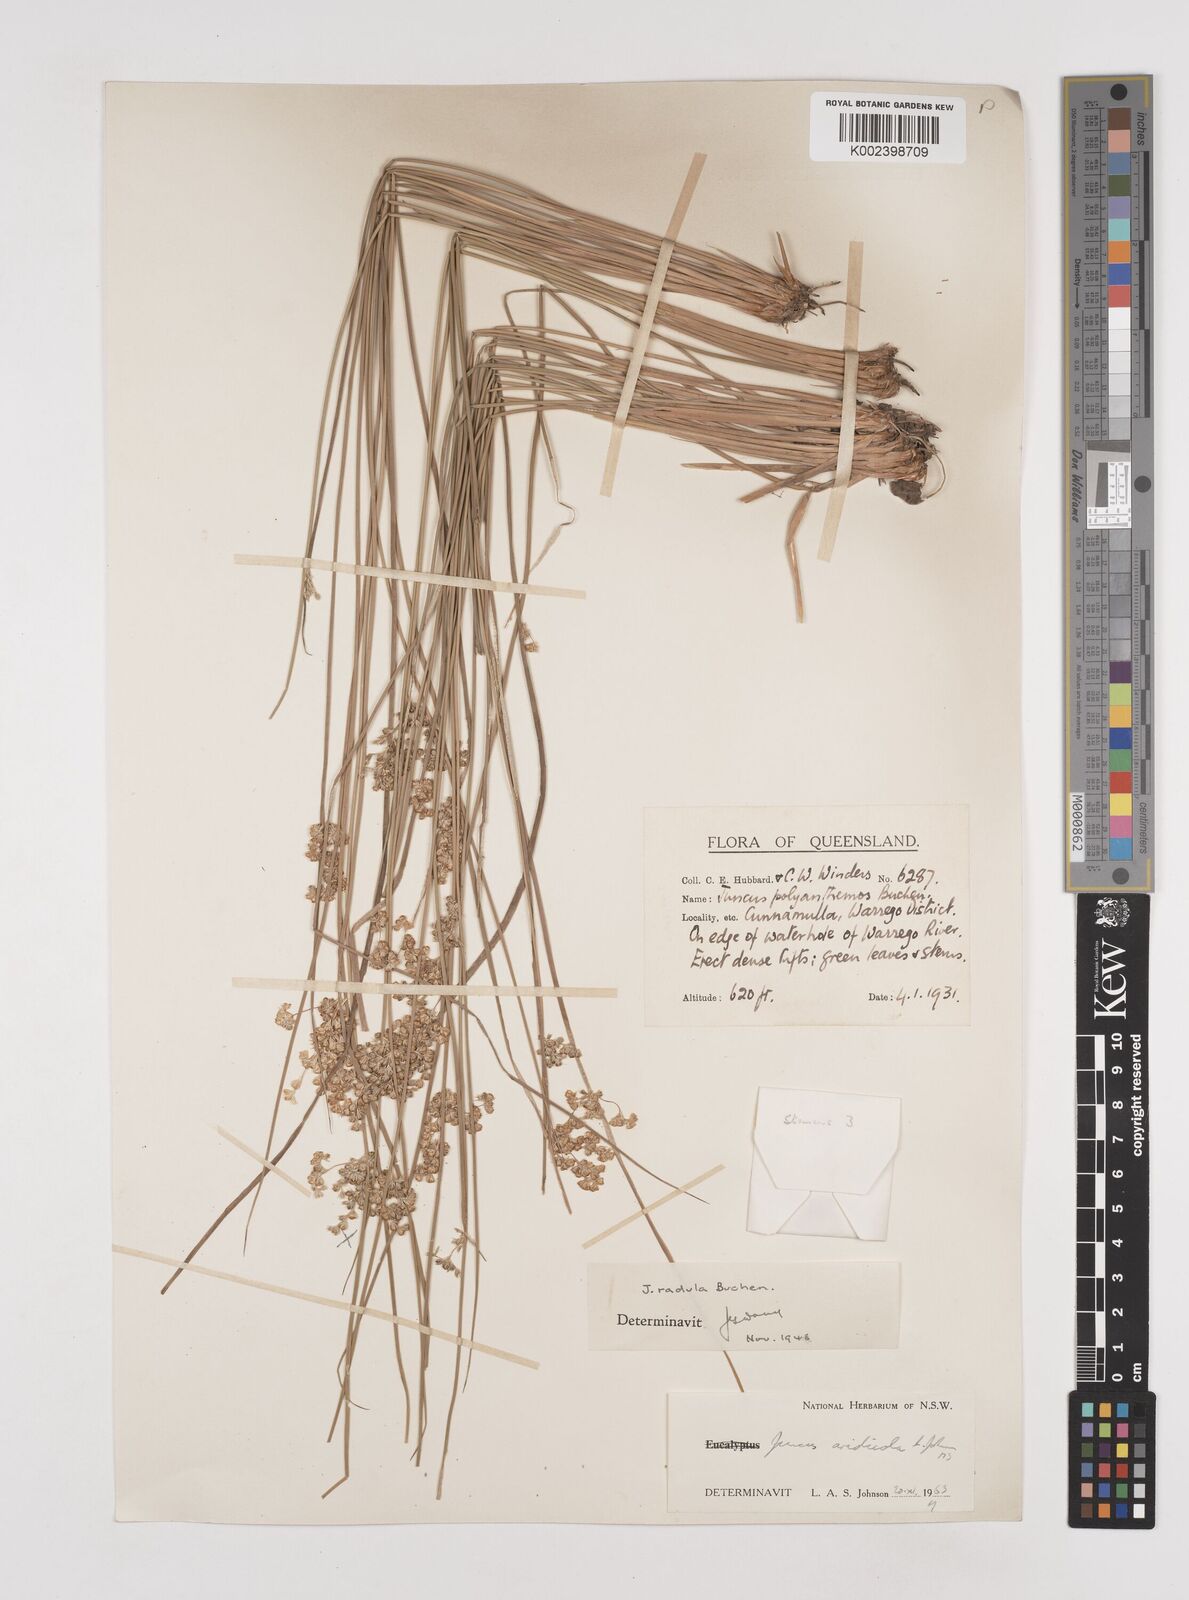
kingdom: Plantae
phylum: Tracheophyta
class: Liliopsida
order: Poales
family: Juncaceae
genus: Juncus
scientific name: Juncus aridicola
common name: Tussock rush
